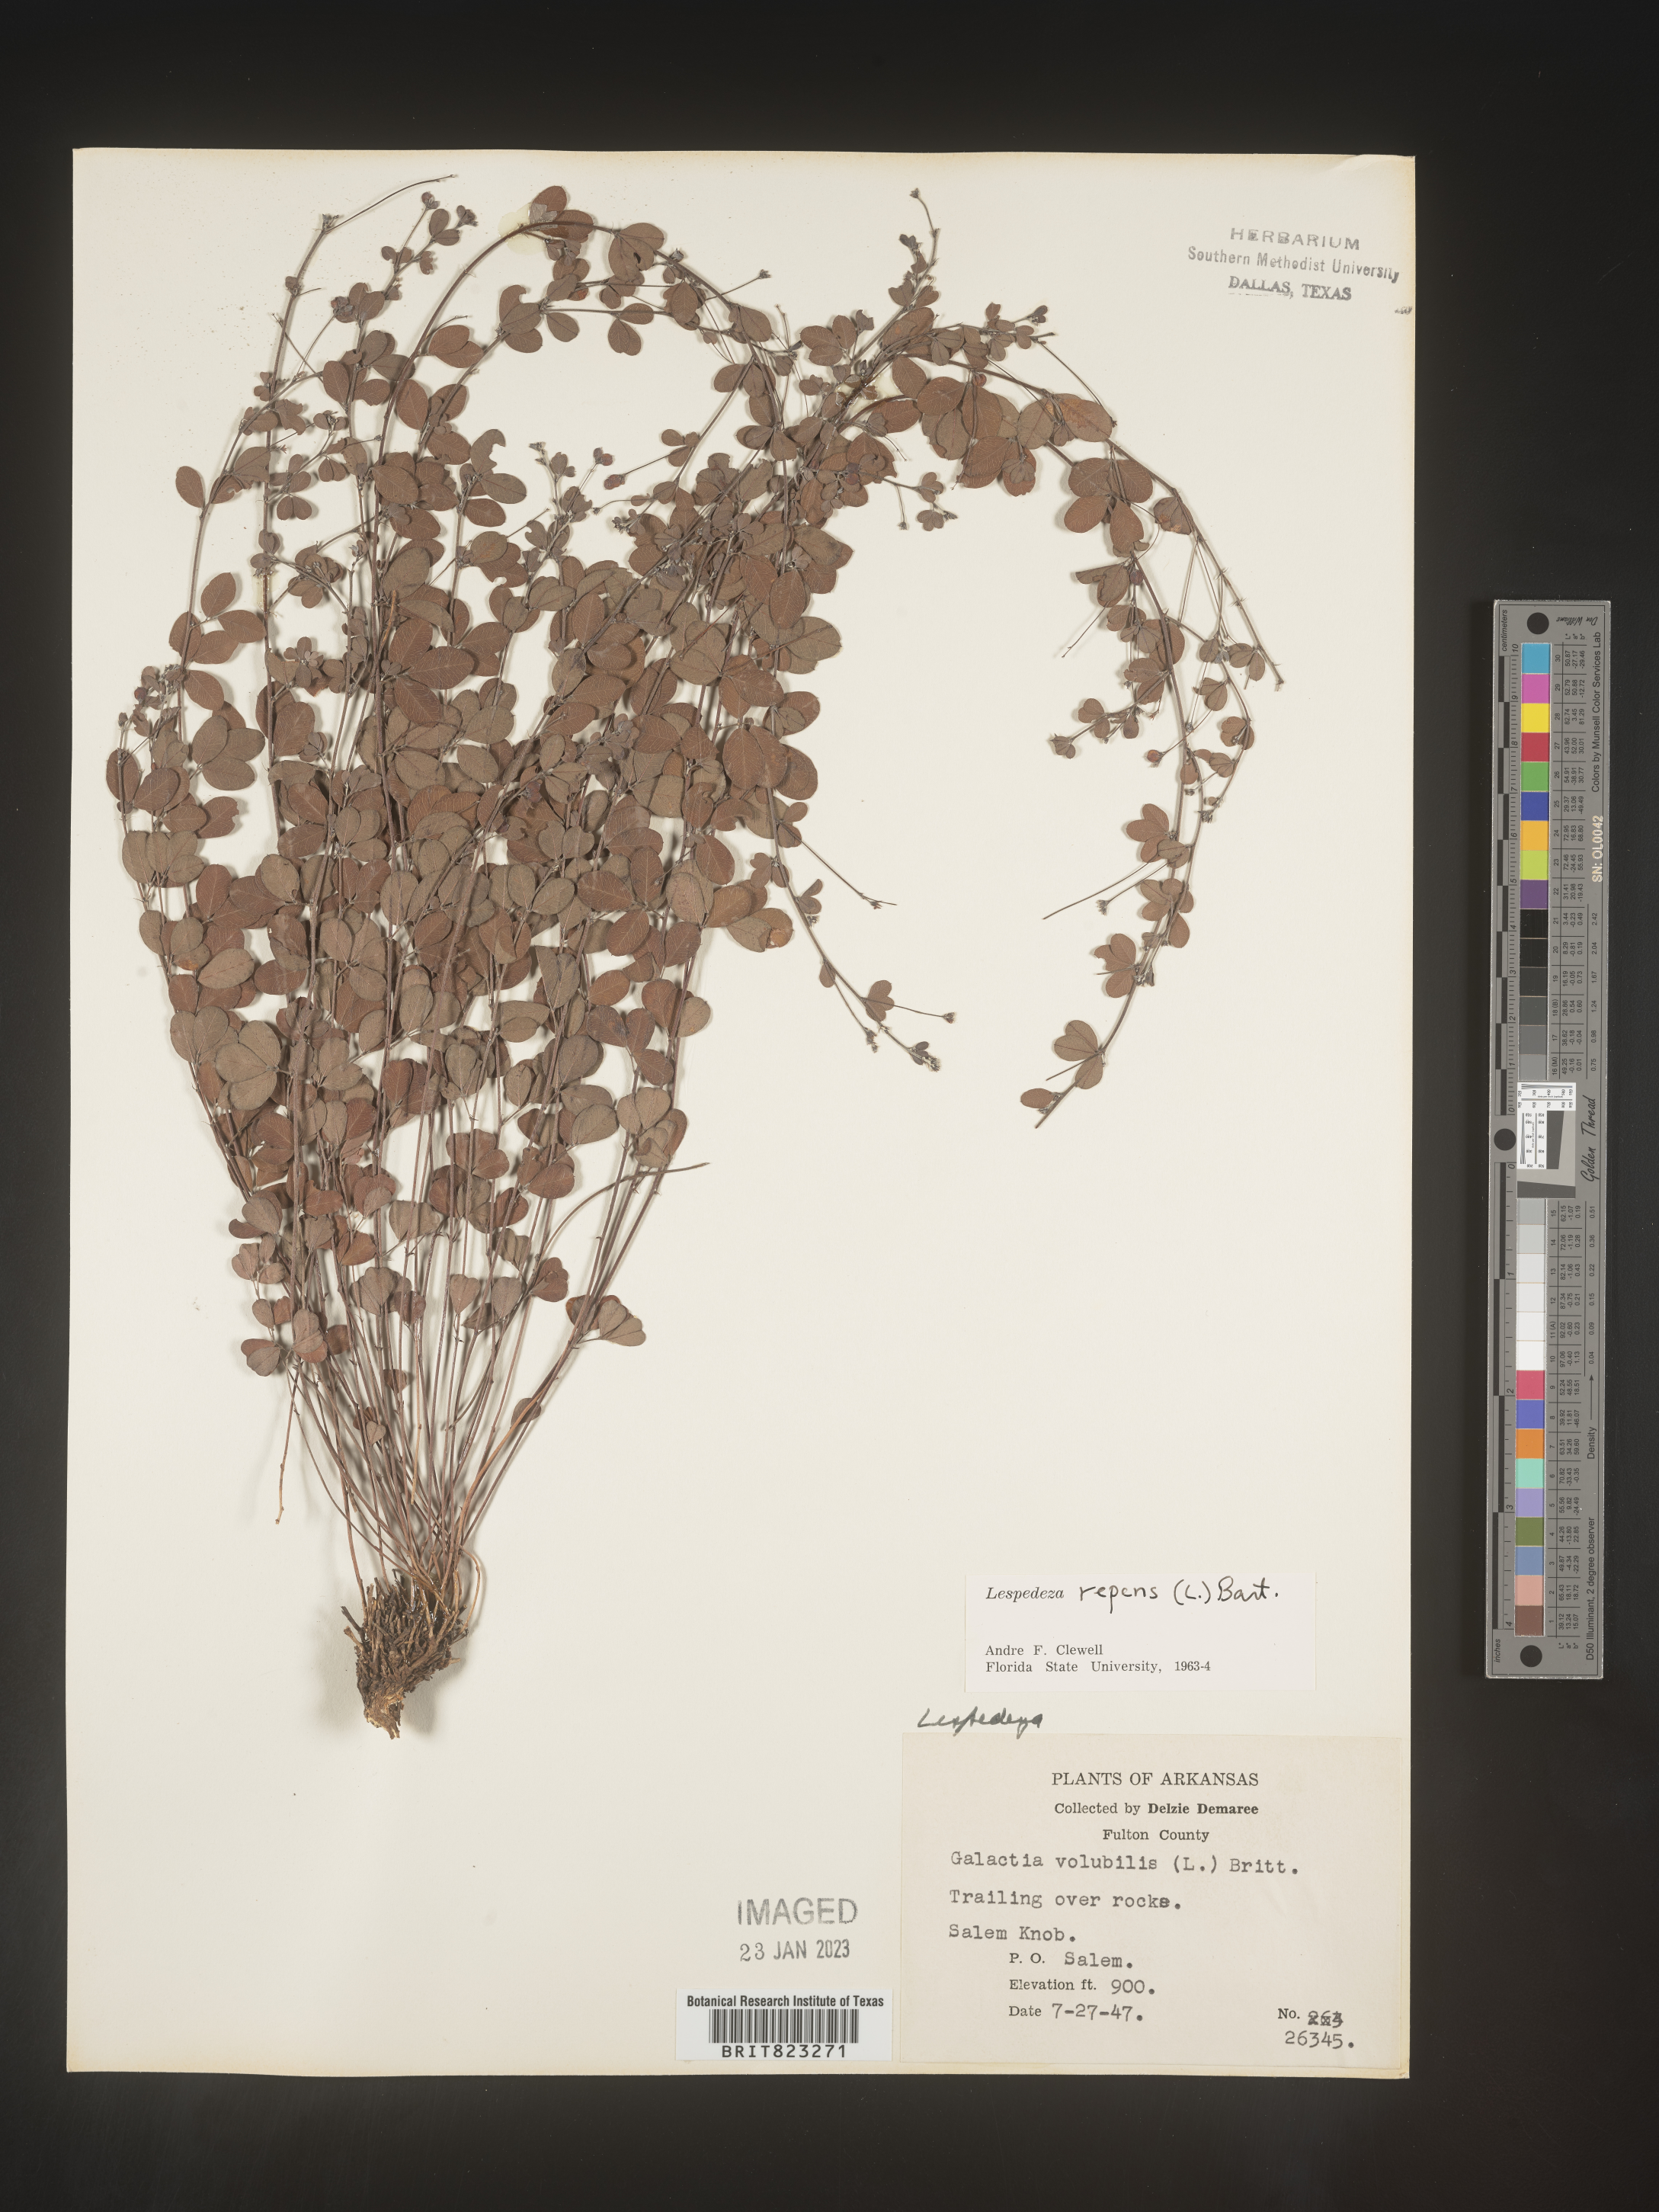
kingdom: Plantae
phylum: Tracheophyta
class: Magnoliopsida
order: Fabales
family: Fabaceae
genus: Lespedeza
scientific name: Lespedeza repens
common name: Creeping bush-clover
